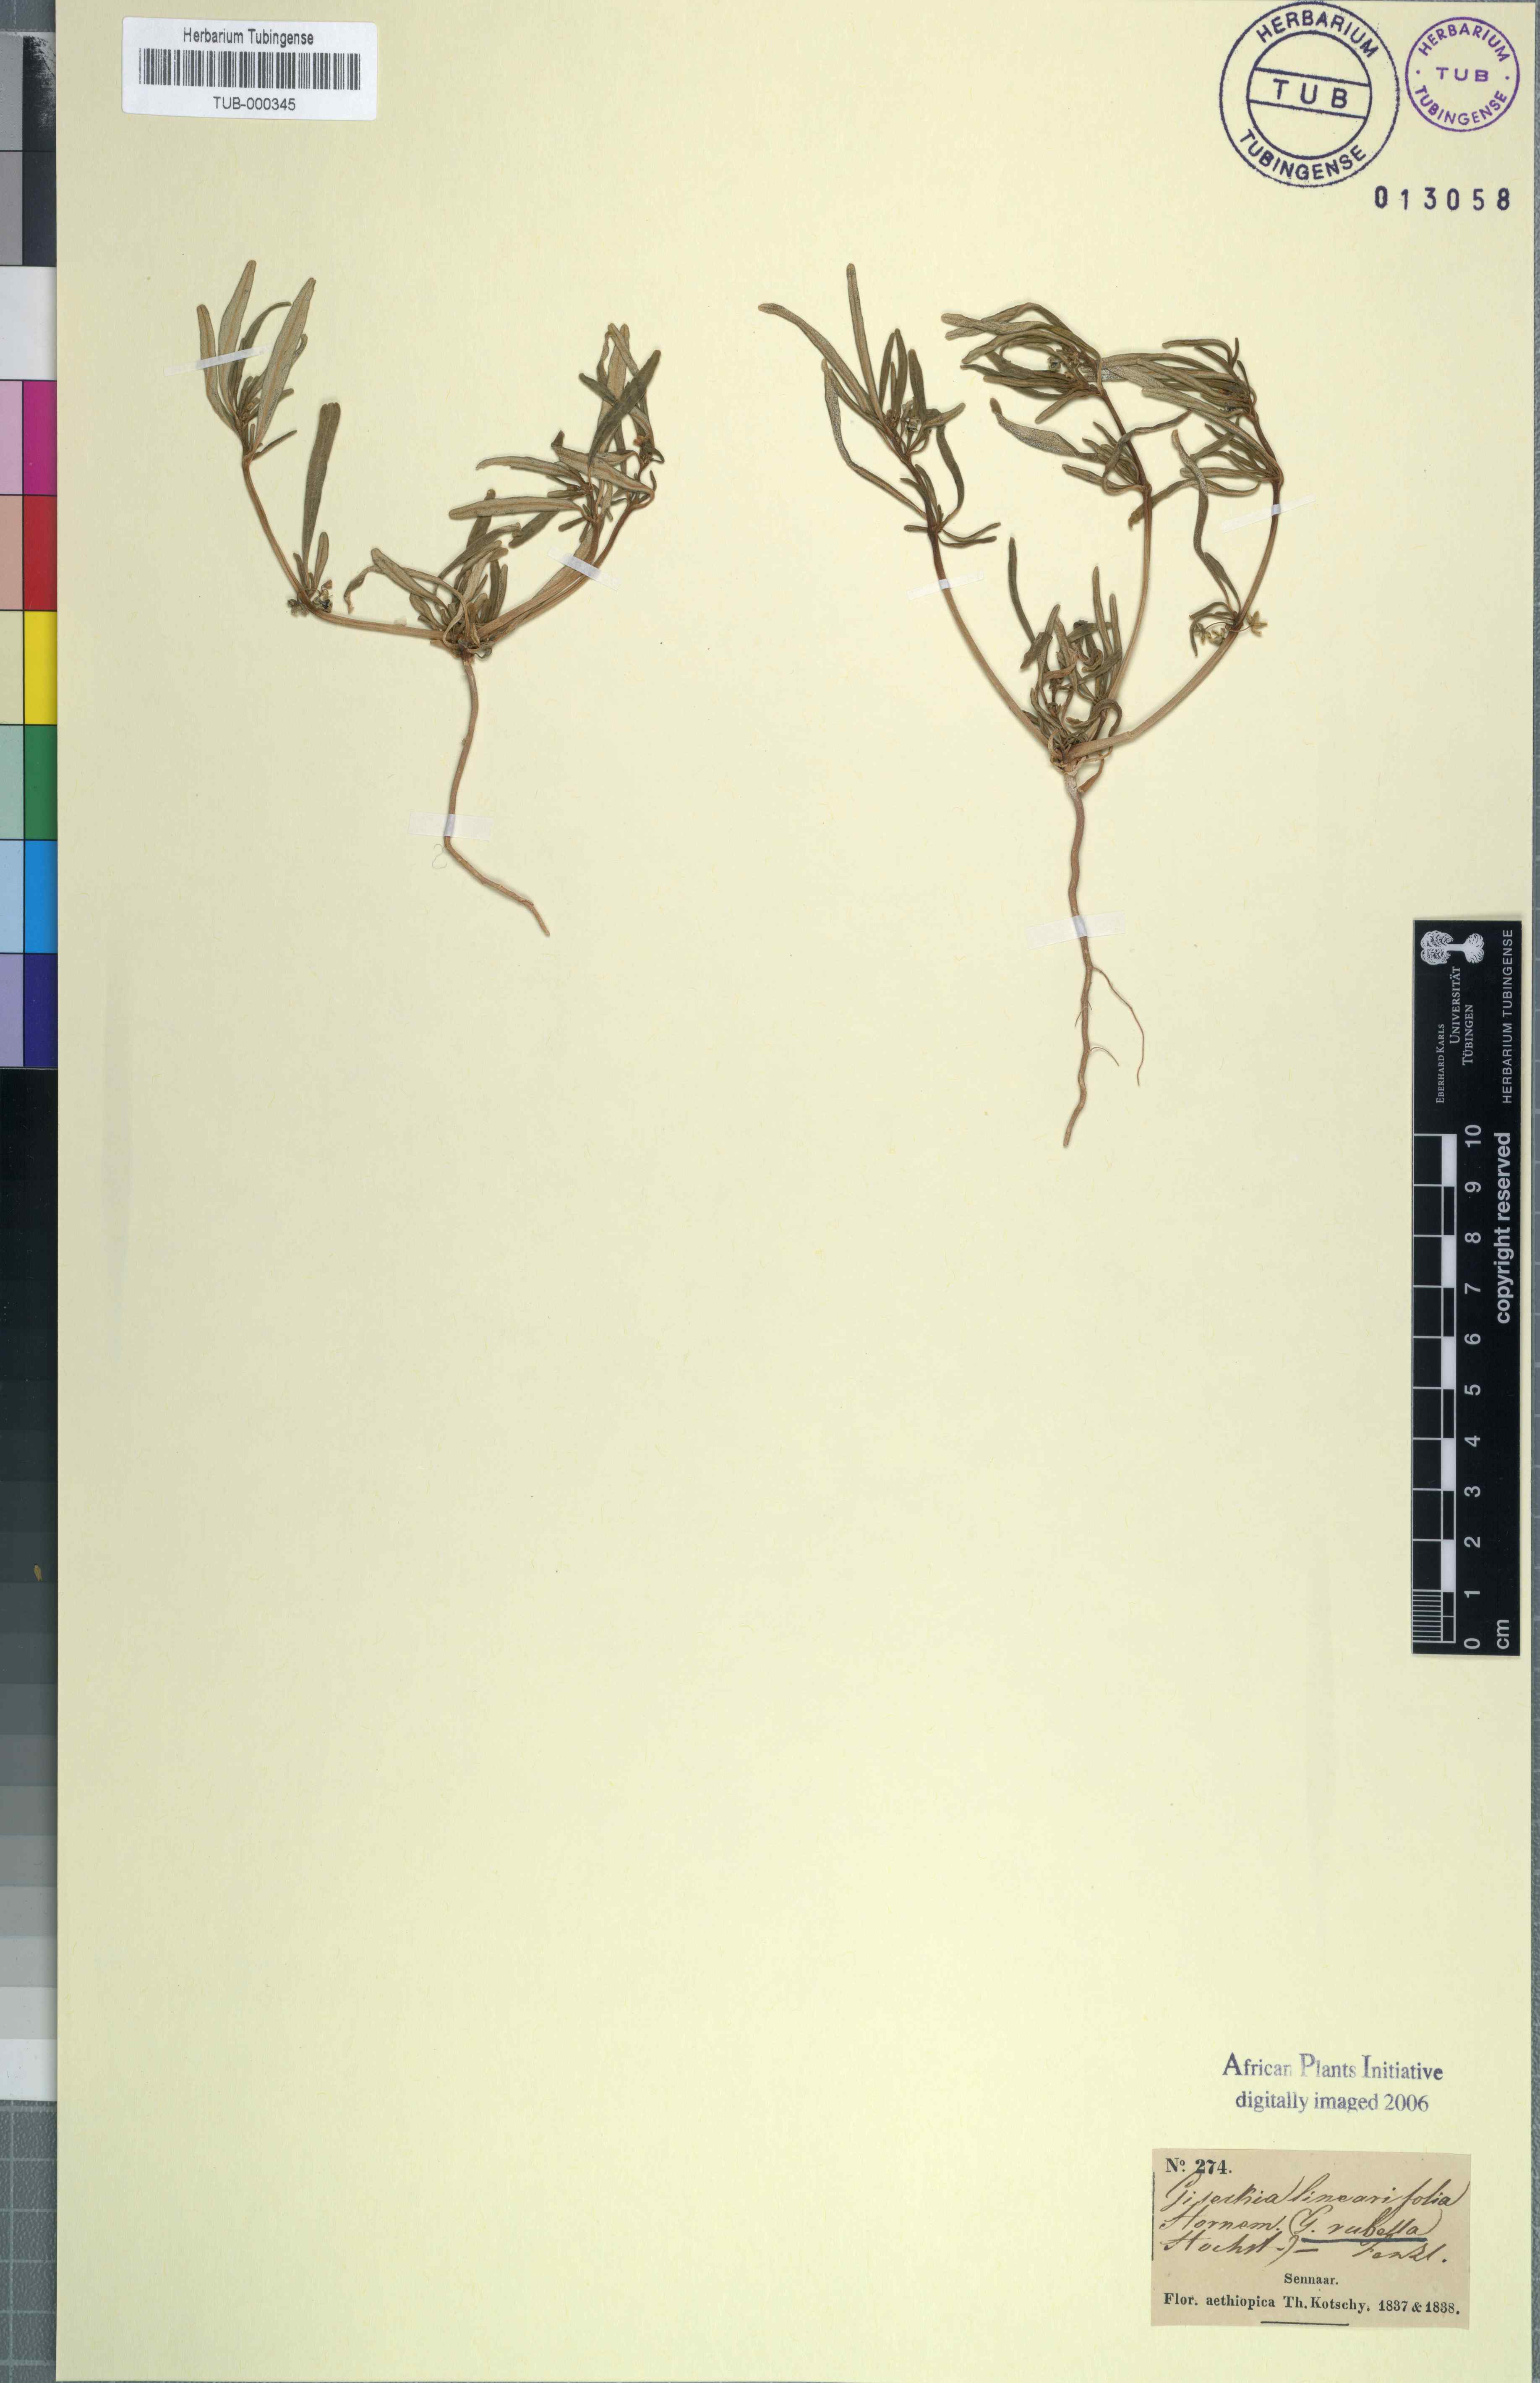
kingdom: Plantae
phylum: Tracheophyta
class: Magnoliopsida
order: Caryophyllales
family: Gisekiaceae
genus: Gisekia
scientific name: Gisekia pharnaceoides
